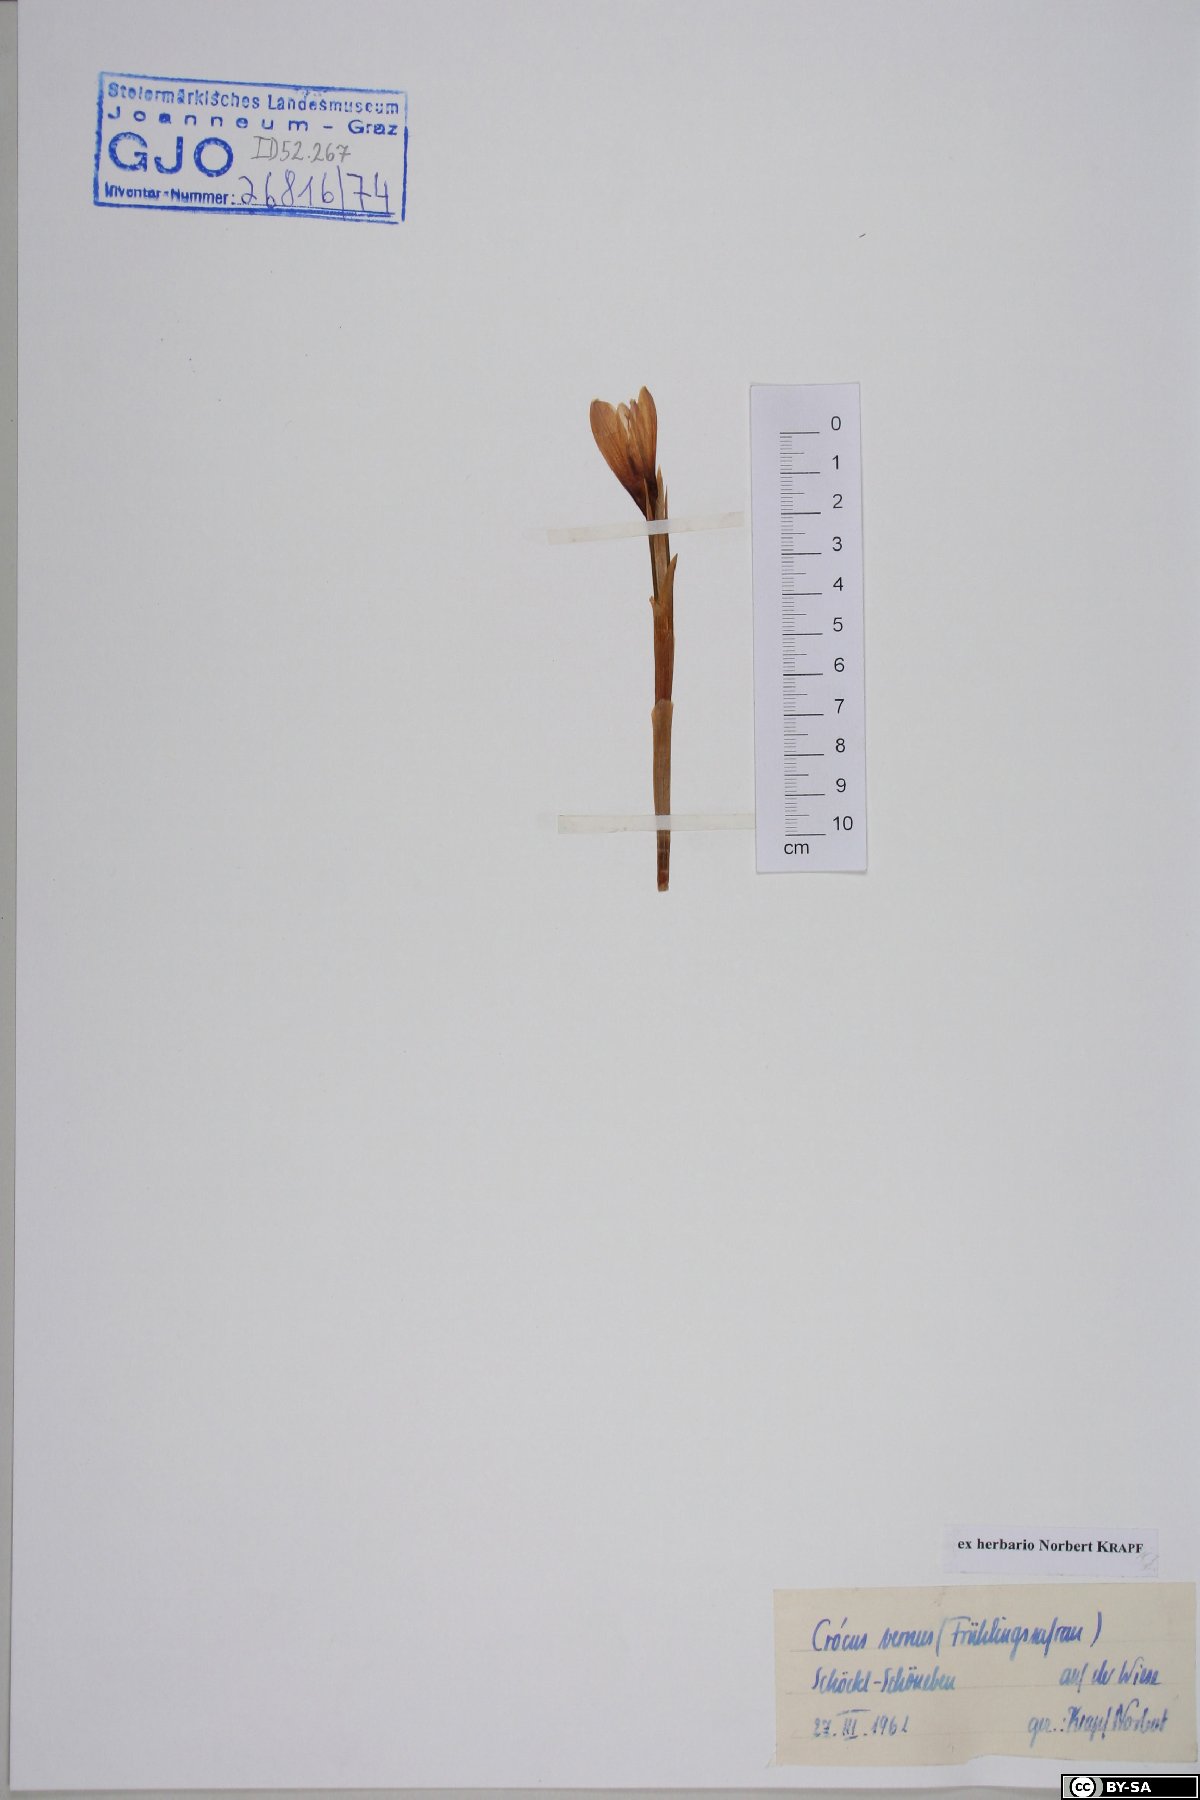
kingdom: Plantae
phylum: Tracheophyta
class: Liliopsida
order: Asparagales
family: Iridaceae
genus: Crocus
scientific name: Crocus vernus
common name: Spring crocus
